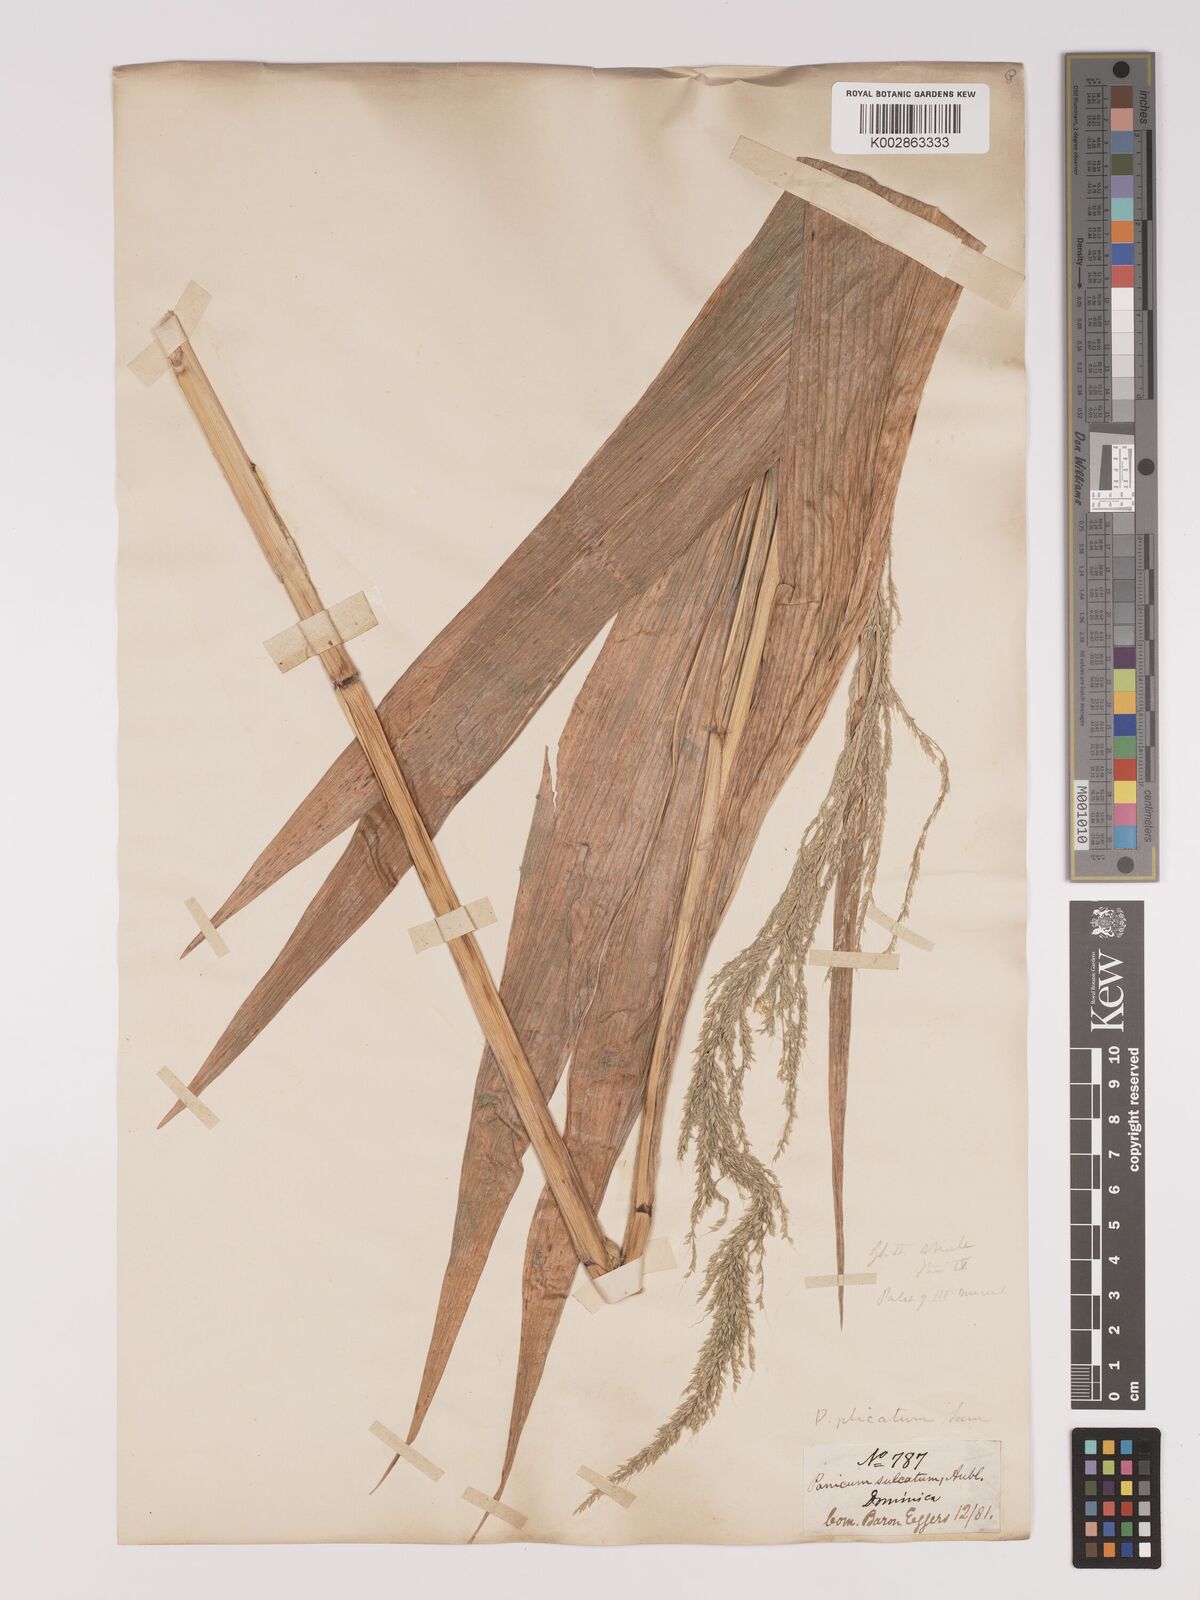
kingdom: Plantae
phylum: Tracheophyta
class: Liliopsida
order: Poales
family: Poaceae
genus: Setaria
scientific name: Setaria palmifolia
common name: Broadleaved bristlegrass
